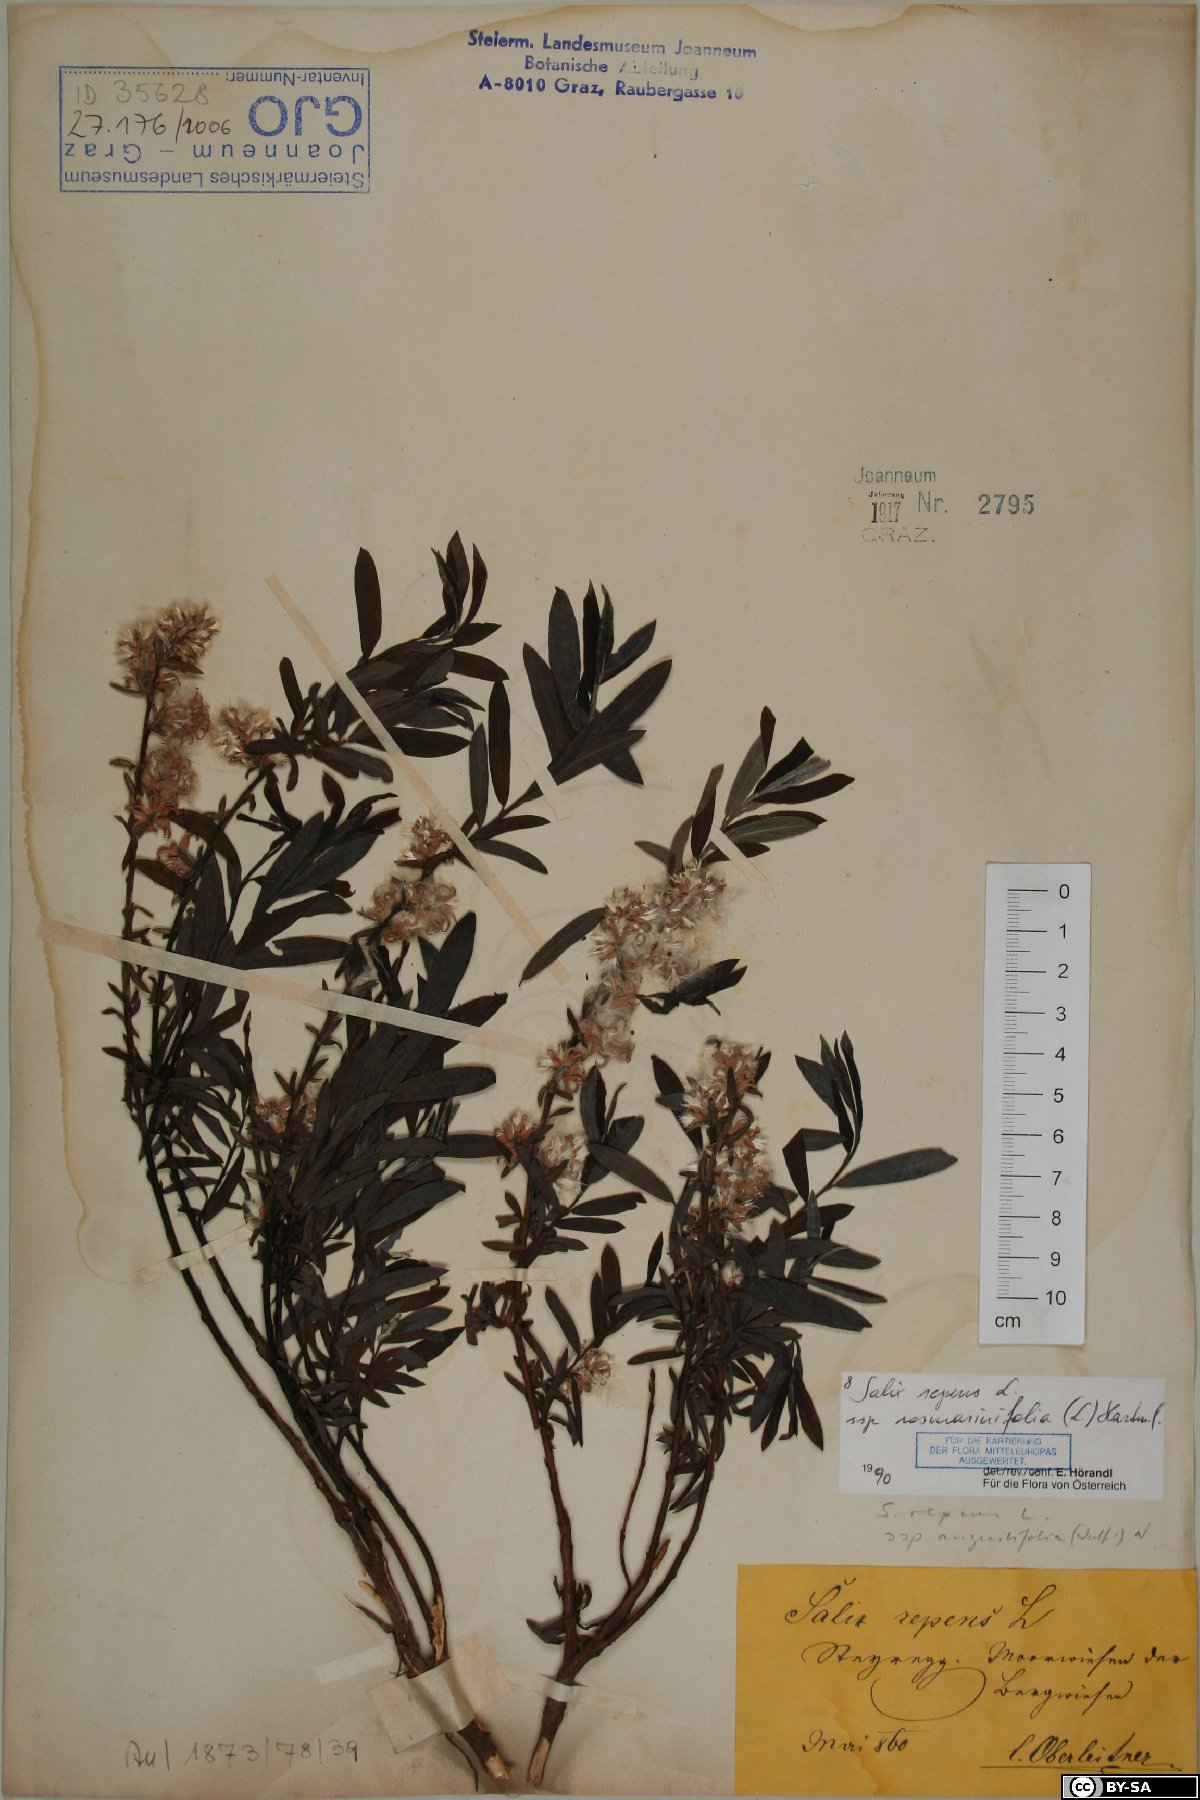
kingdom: Plantae
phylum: Tracheophyta
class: Magnoliopsida
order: Malpighiales
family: Salicaceae
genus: Salix
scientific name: Salix repens
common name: Creeping willow
